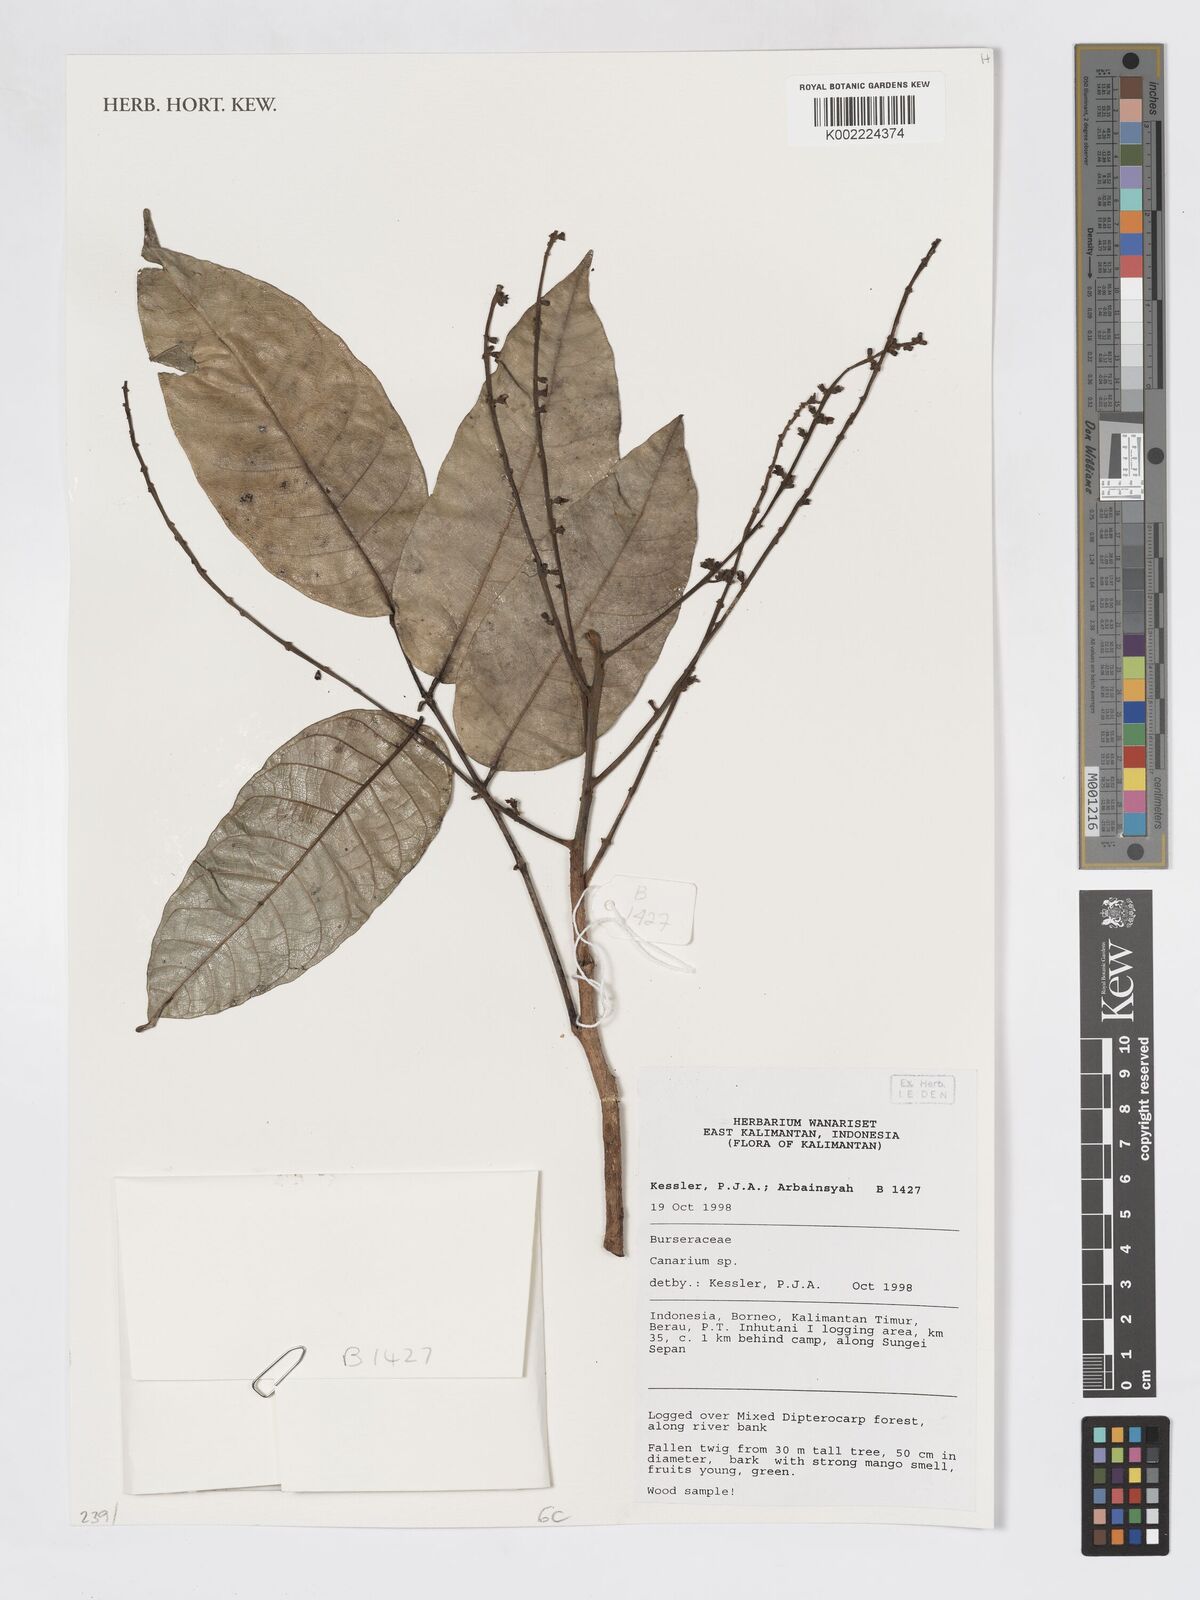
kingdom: Plantae
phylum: Tracheophyta
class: Magnoliopsida
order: Sapindales
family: Burseraceae
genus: Canarium
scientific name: Canarium
